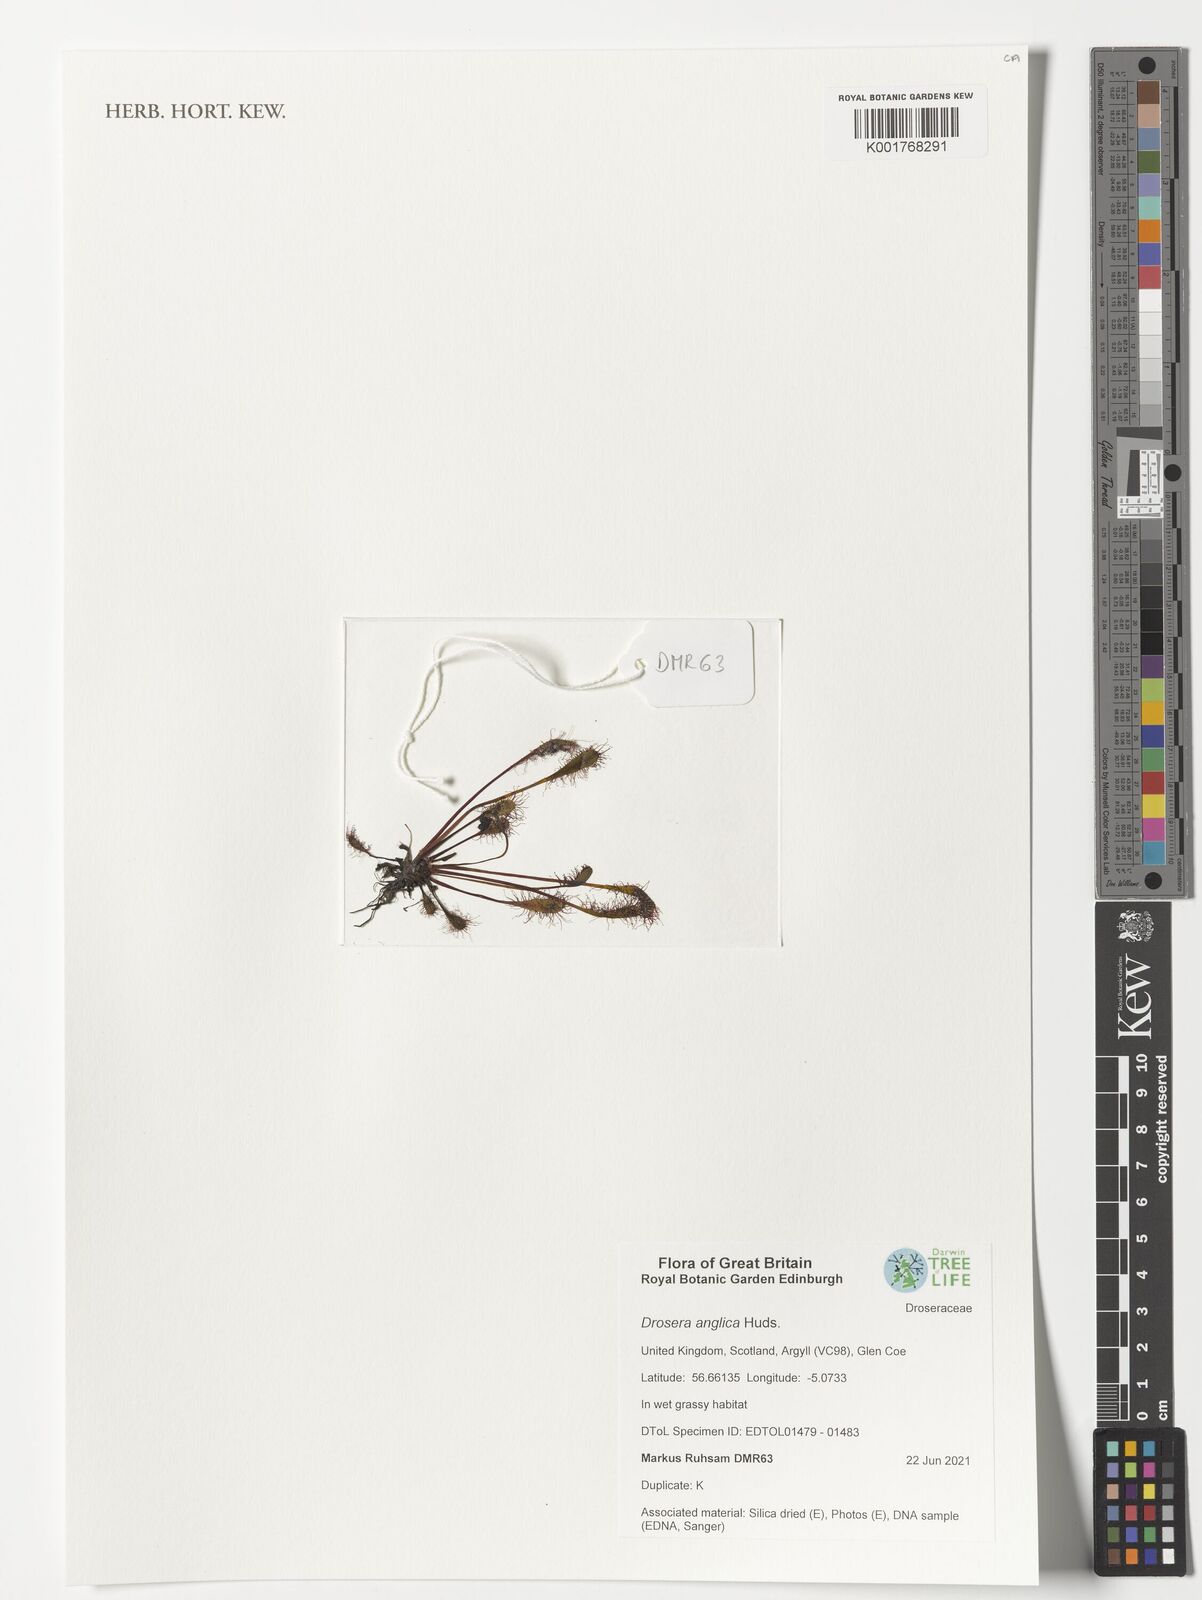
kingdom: Plantae
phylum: Tracheophyta
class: Magnoliopsida
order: Caryophyllales
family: Droseraceae
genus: Drosera
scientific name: Drosera anglica
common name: Great sundew
